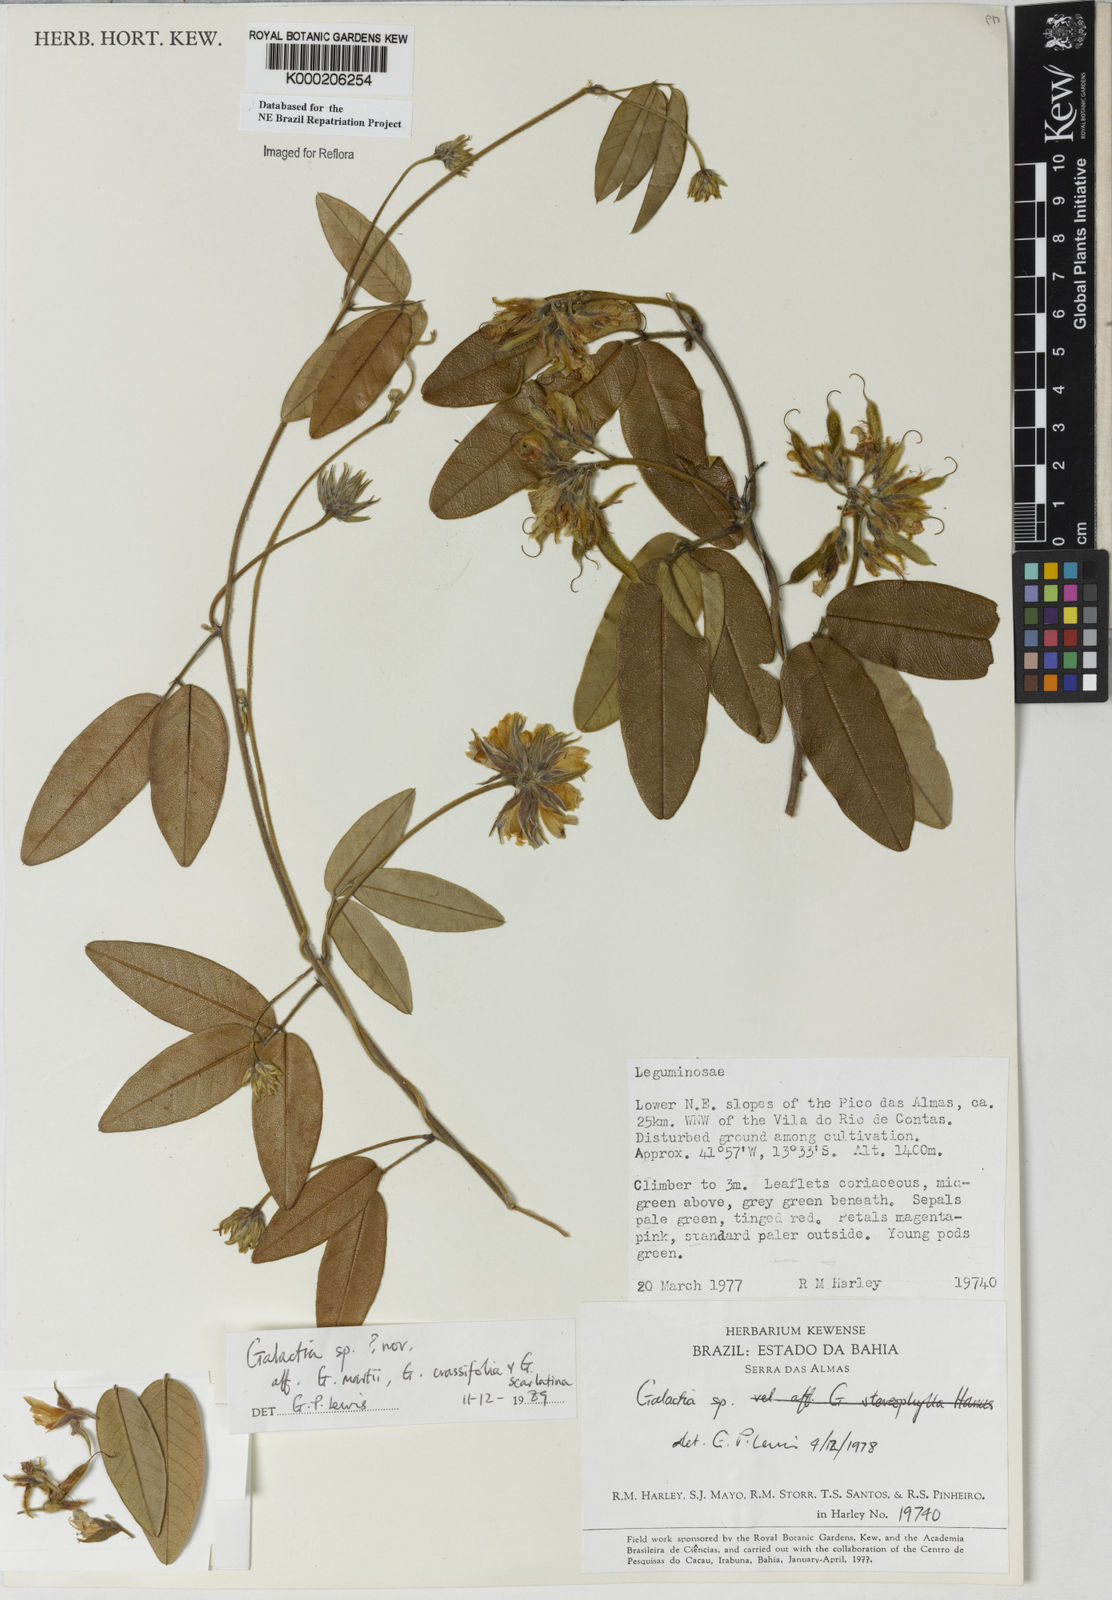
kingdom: Plantae
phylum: Tracheophyta
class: Magnoliopsida
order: Fabales
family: Fabaceae
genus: Galactia
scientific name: Galactia
